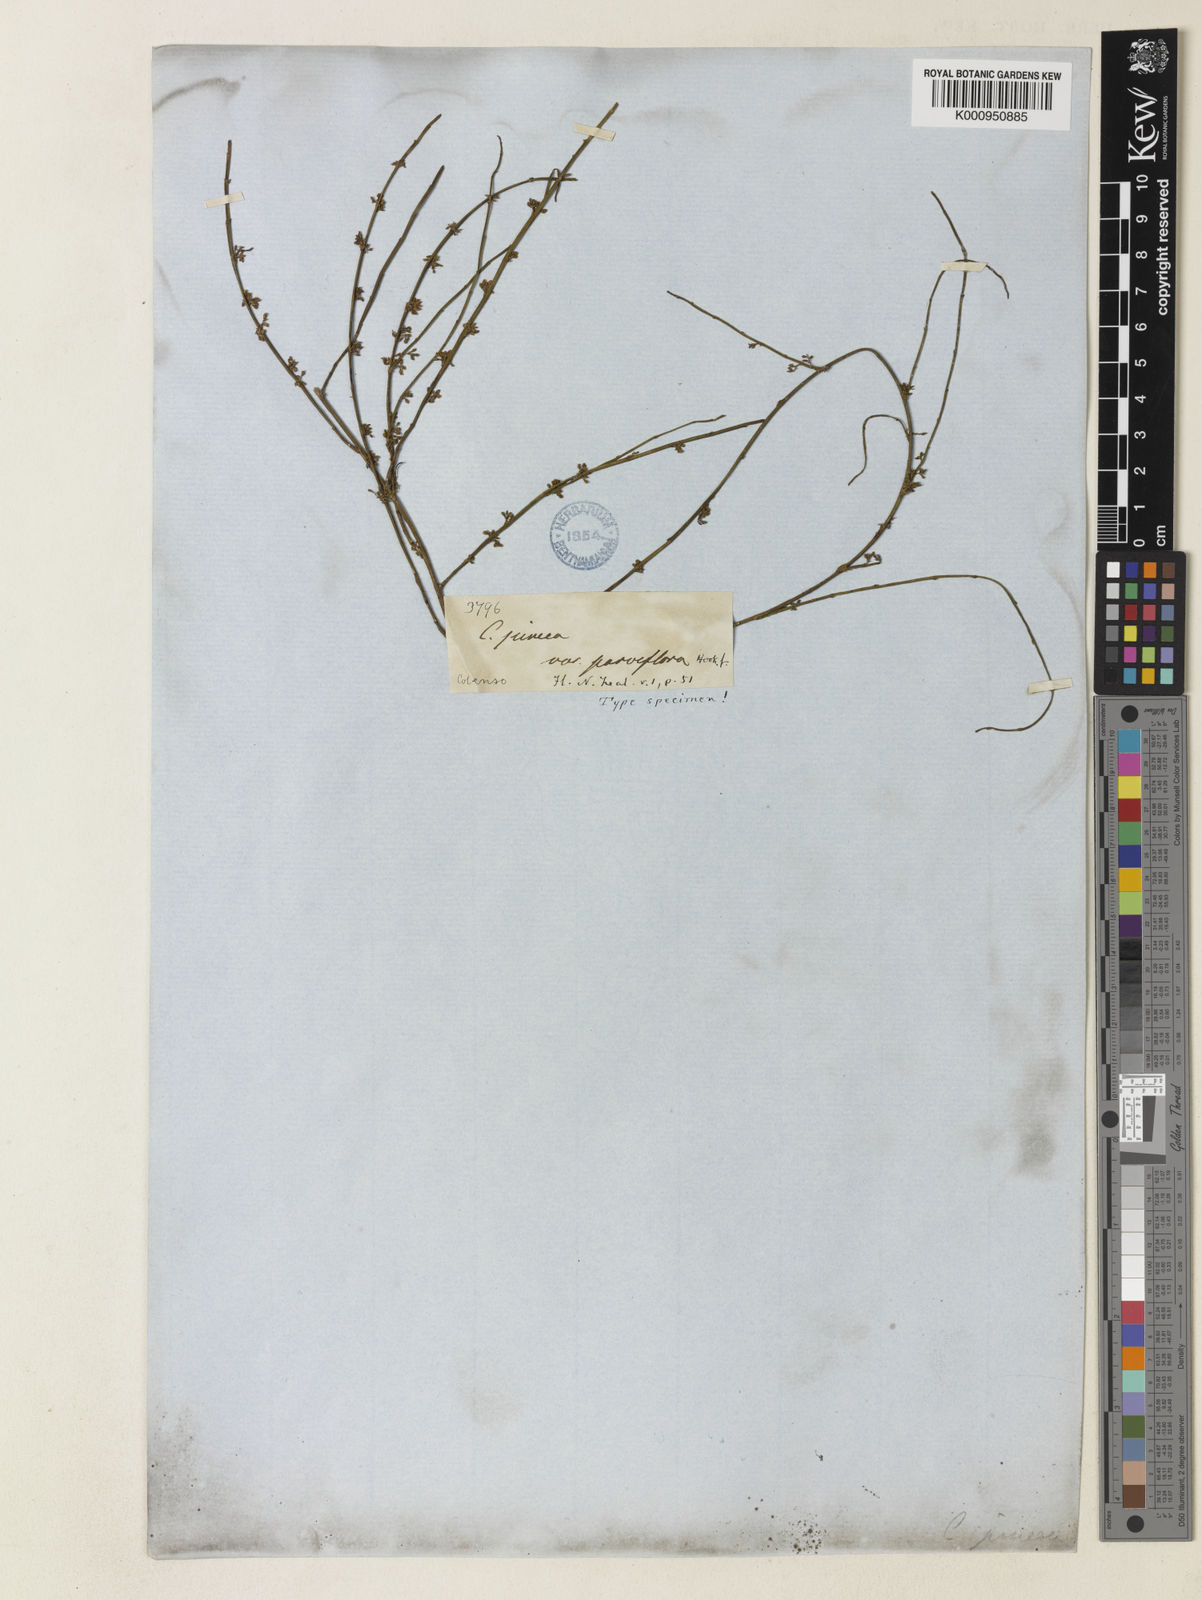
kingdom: Plantae
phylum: Tracheophyta
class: Magnoliopsida
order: Fabales
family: Fabaceae
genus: Carmichaelia
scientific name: Carmichaelia juncea
